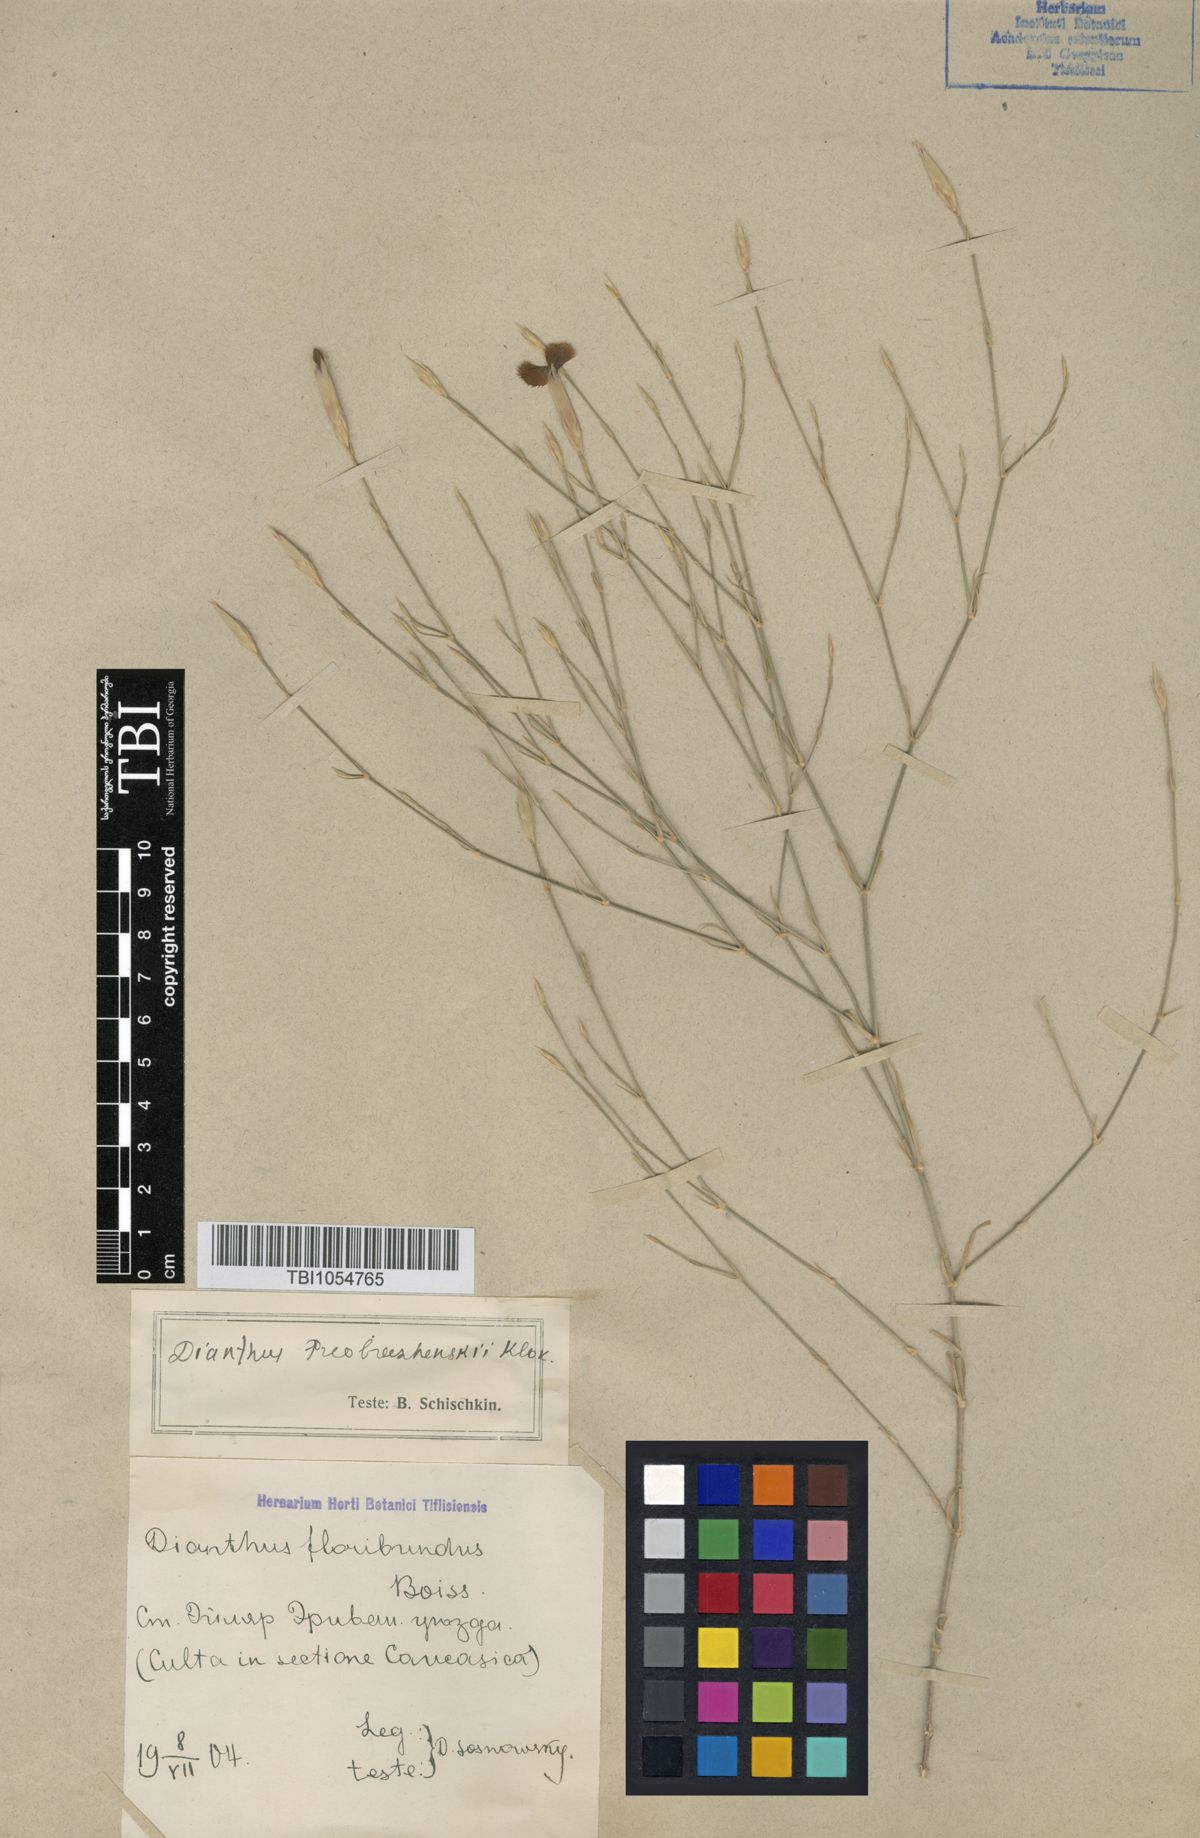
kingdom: Plantae
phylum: Tracheophyta
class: Magnoliopsida
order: Caryophyllales
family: Caryophyllaceae
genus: Dianthus
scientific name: Dianthus bicolor
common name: Bicolour pink
